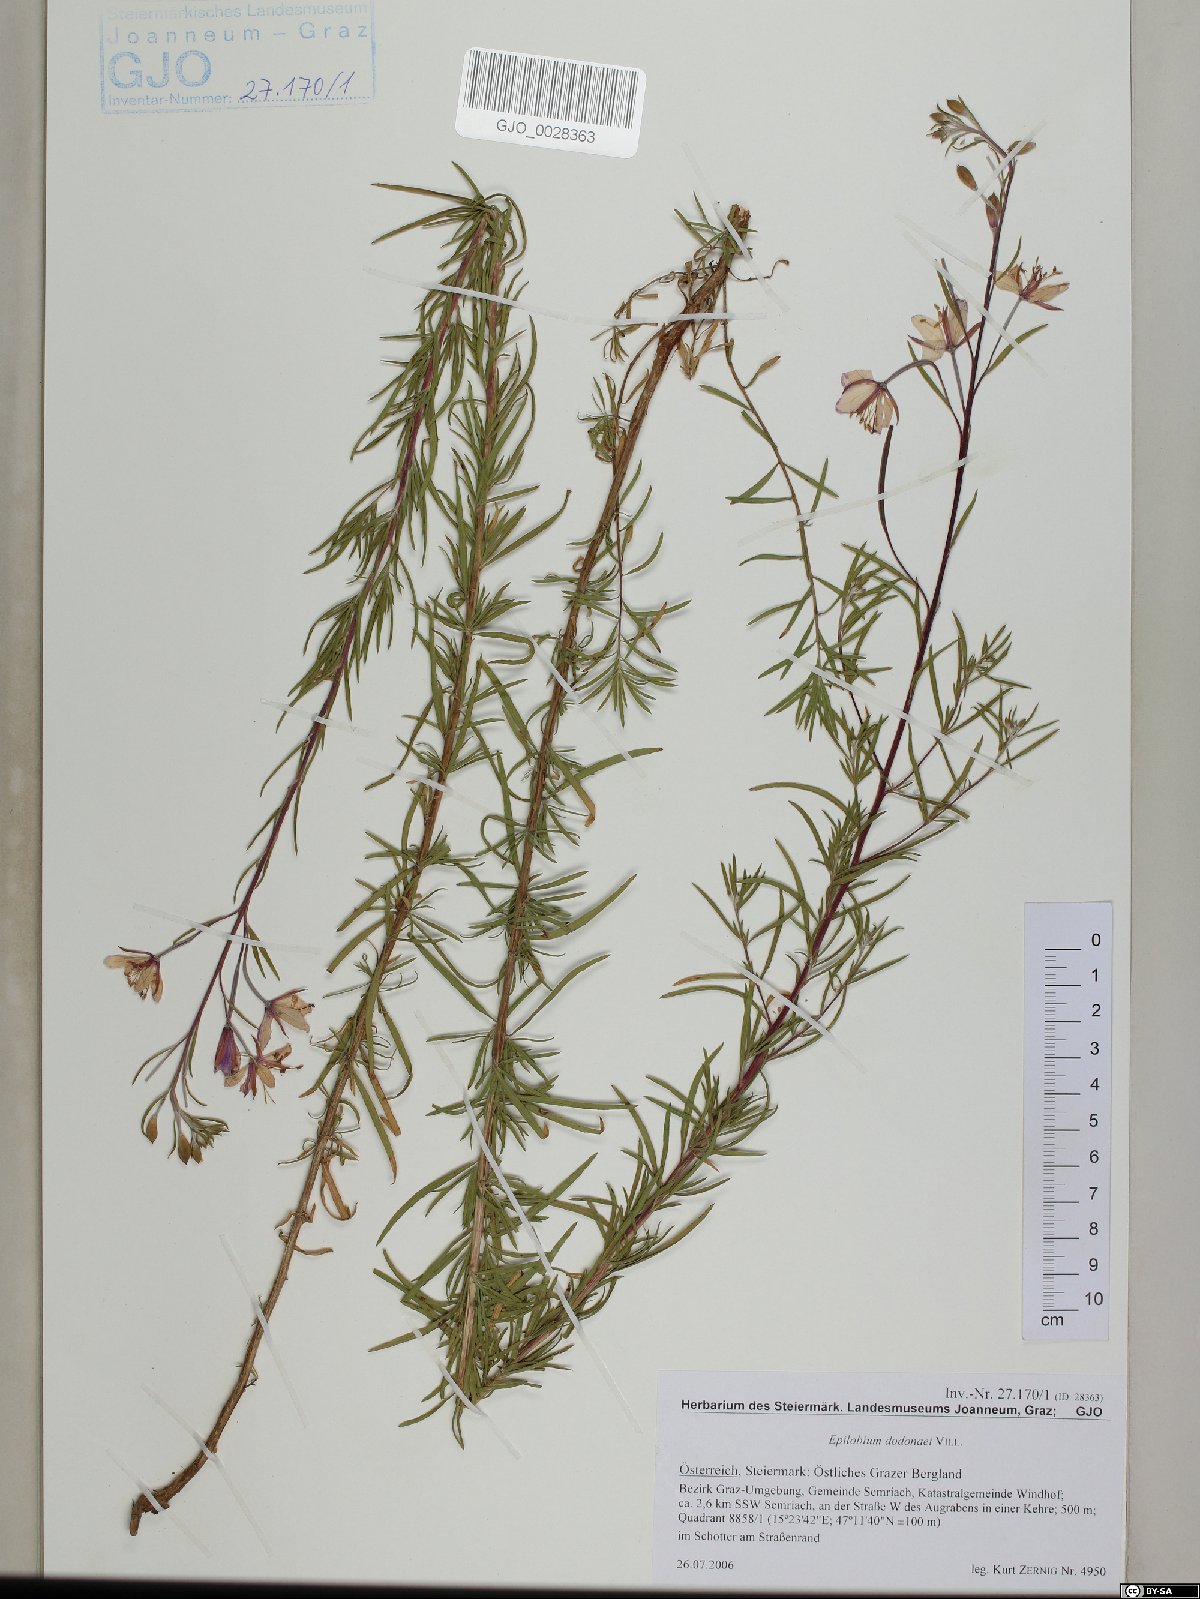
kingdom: Plantae
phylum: Tracheophyta
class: Magnoliopsida
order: Myrtales
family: Onagraceae
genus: Chamaenerion
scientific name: Chamaenerion dodonaei
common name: Rosemary-leaved willowherb
